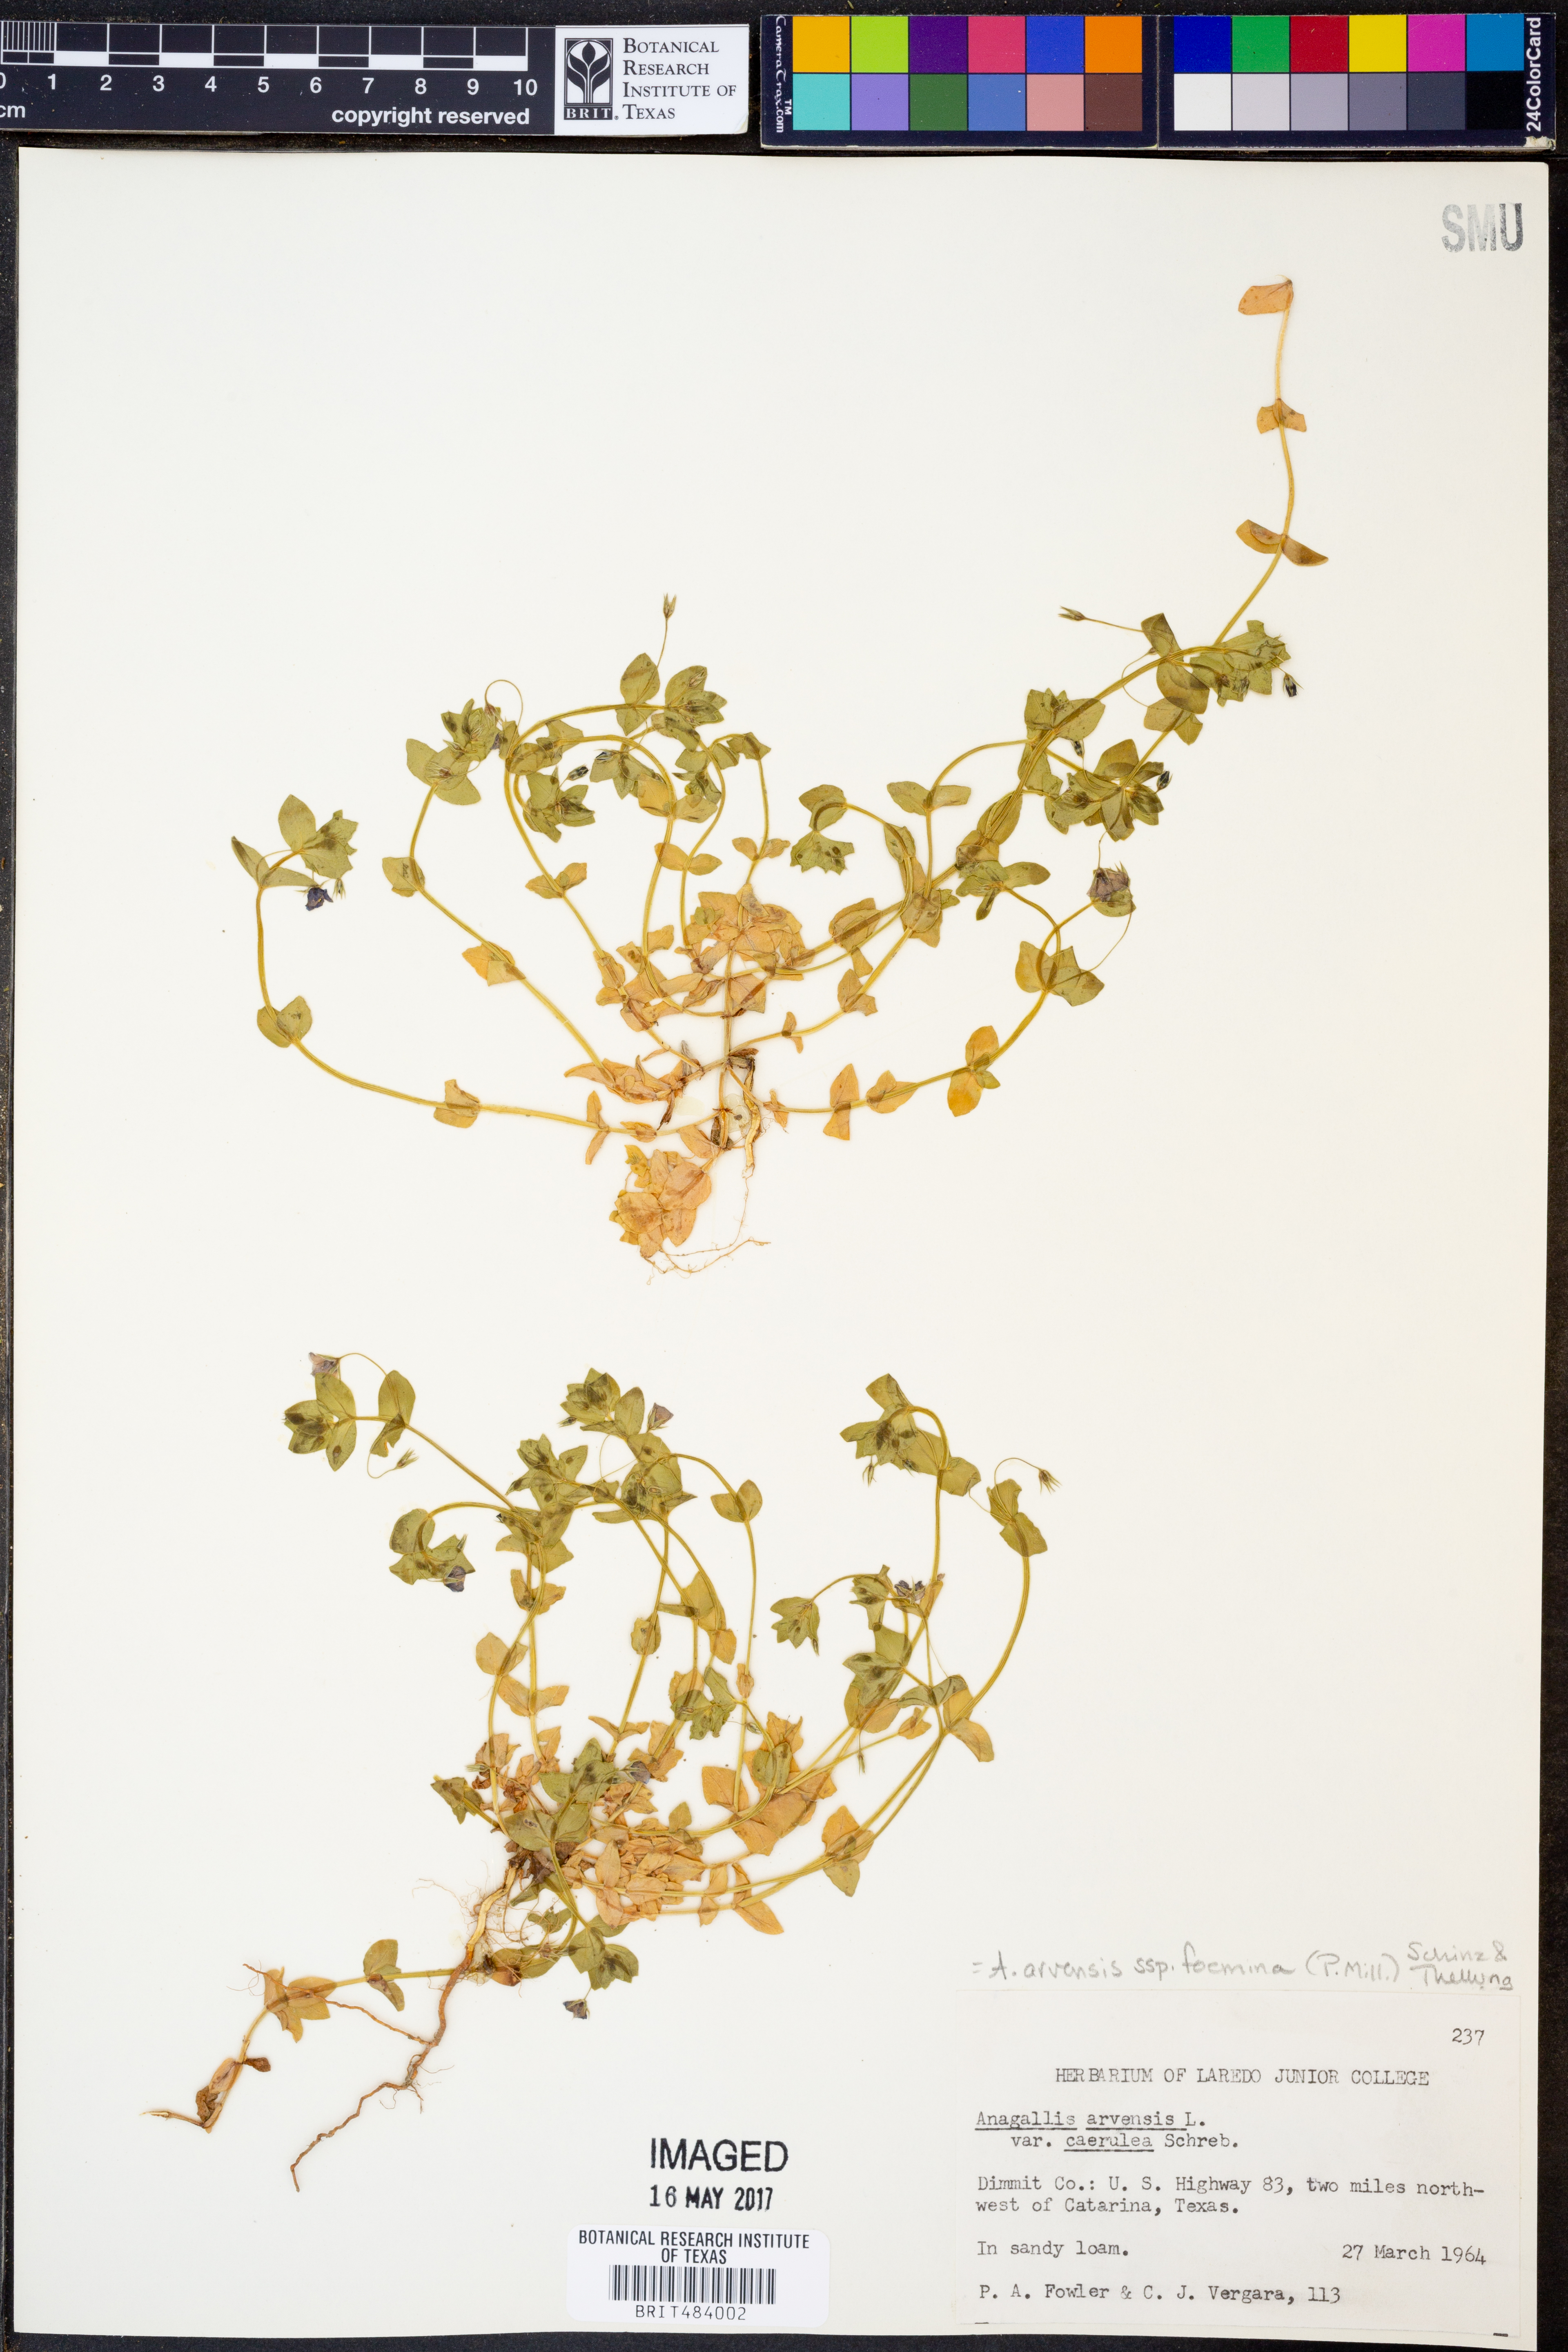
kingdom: Plantae
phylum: Tracheophyta
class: Magnoliopsida
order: Ericales
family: Primulaceae
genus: Lysimachia
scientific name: Lysimachia foemina
